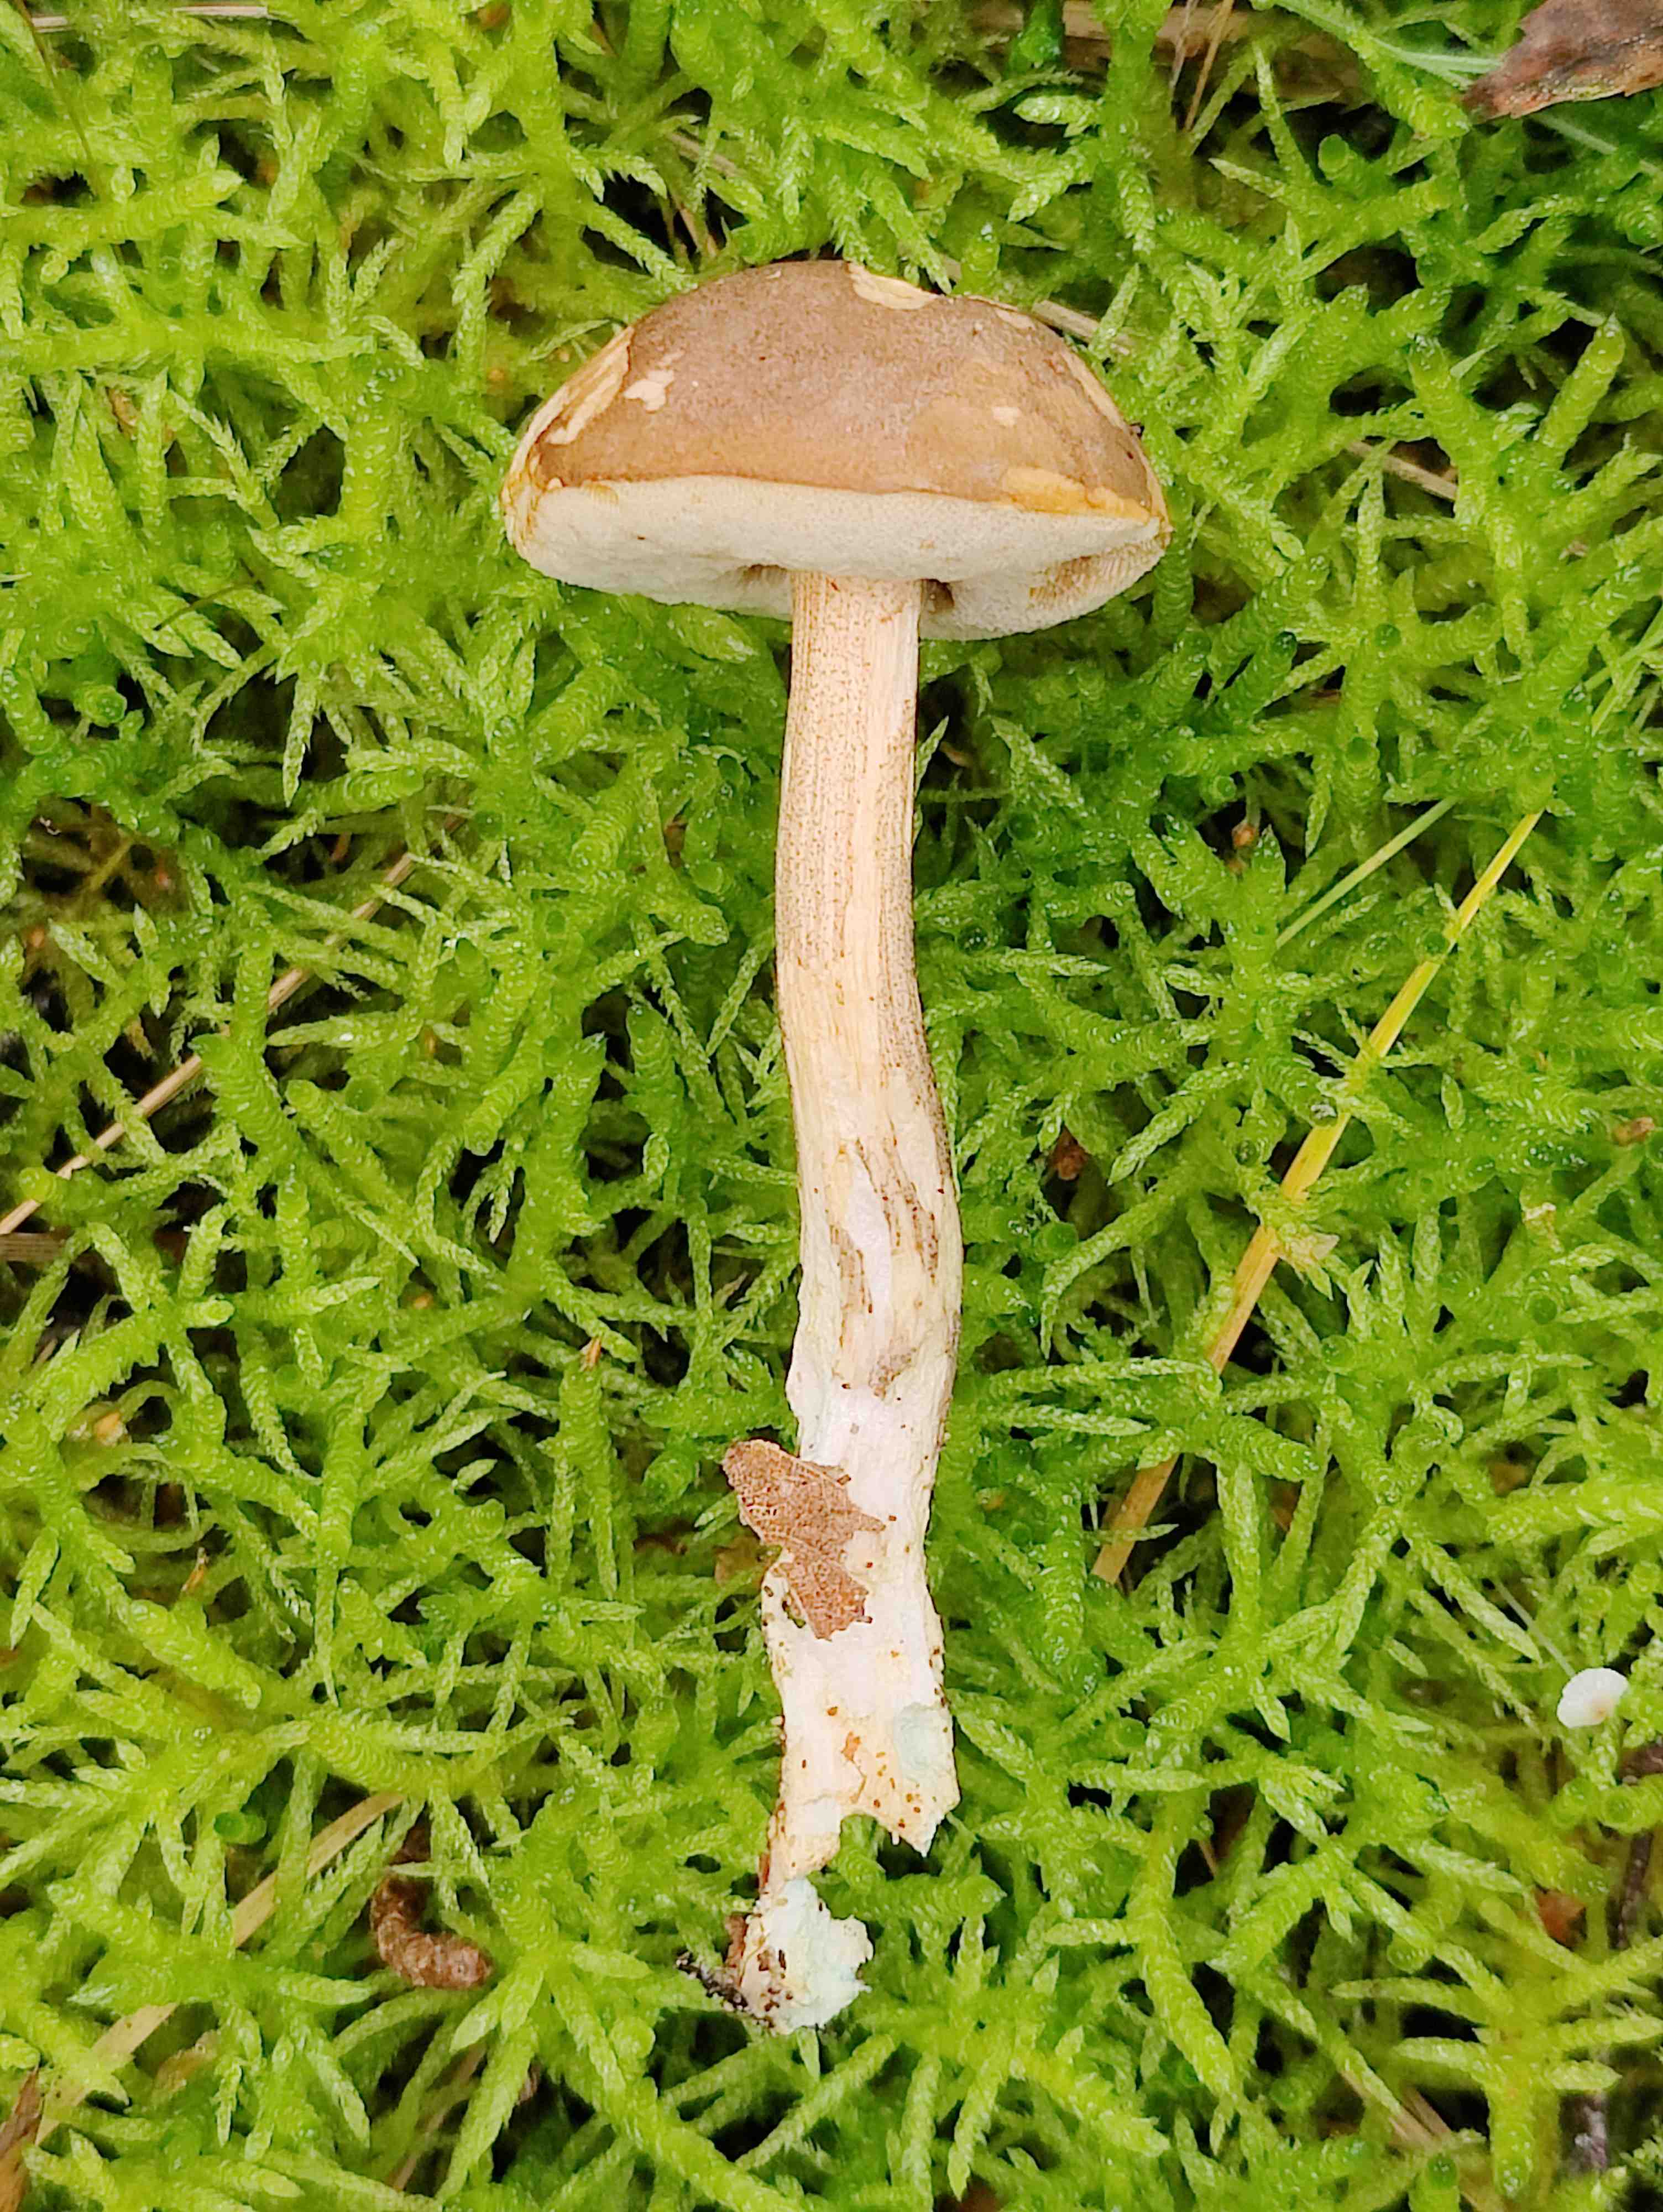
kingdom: Fungi
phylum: Basidiomycota
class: Agaricomycetes
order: Boletales
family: Boletaceae
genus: Leccinum
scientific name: Leccinum cyaneobasileucum
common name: almindelig skælrørhat
